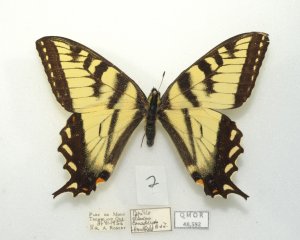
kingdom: Animalia
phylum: Arthropoda
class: Insecta
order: Lepidoptera
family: Papilionidae
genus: Pterourus
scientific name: Pterourus canadensis
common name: Canadian Tiger Swallowtail
